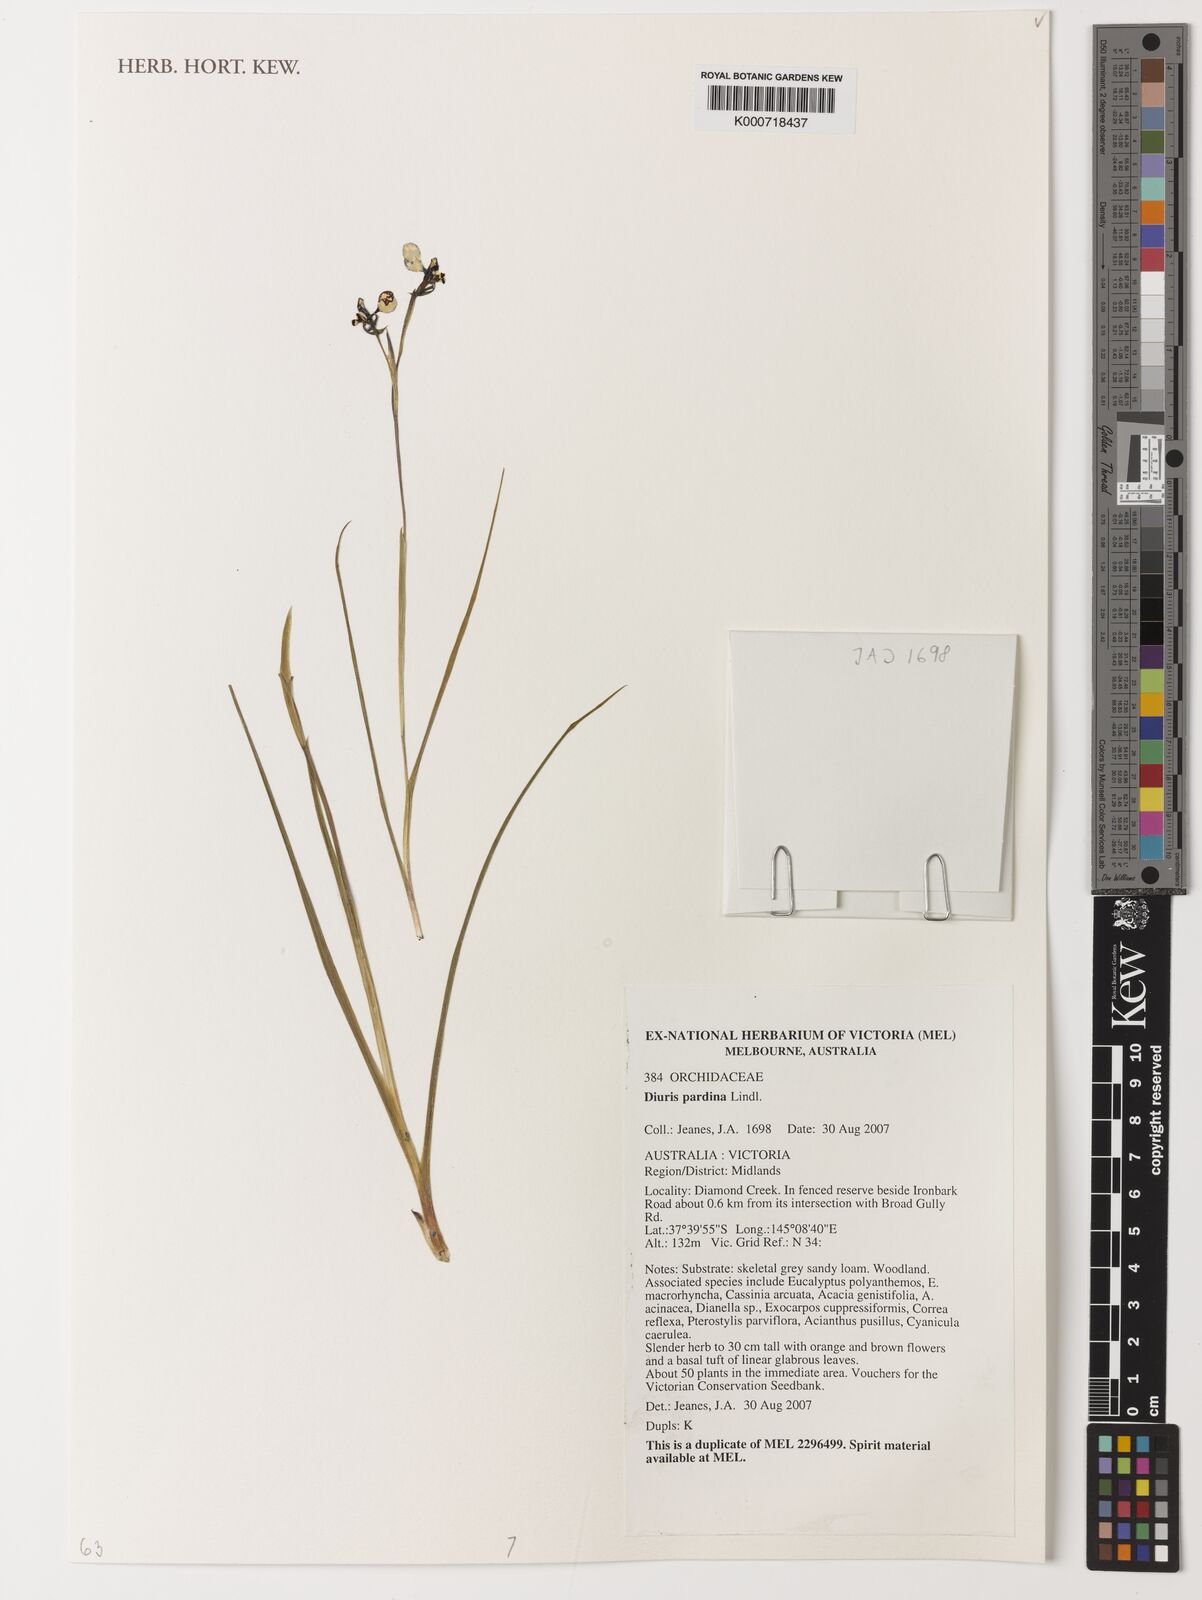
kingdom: Plantae
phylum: Tracheophyta
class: Liliopsida
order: Asparagales
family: Orchidaceae
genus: Diuris
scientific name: Diuris pardina
